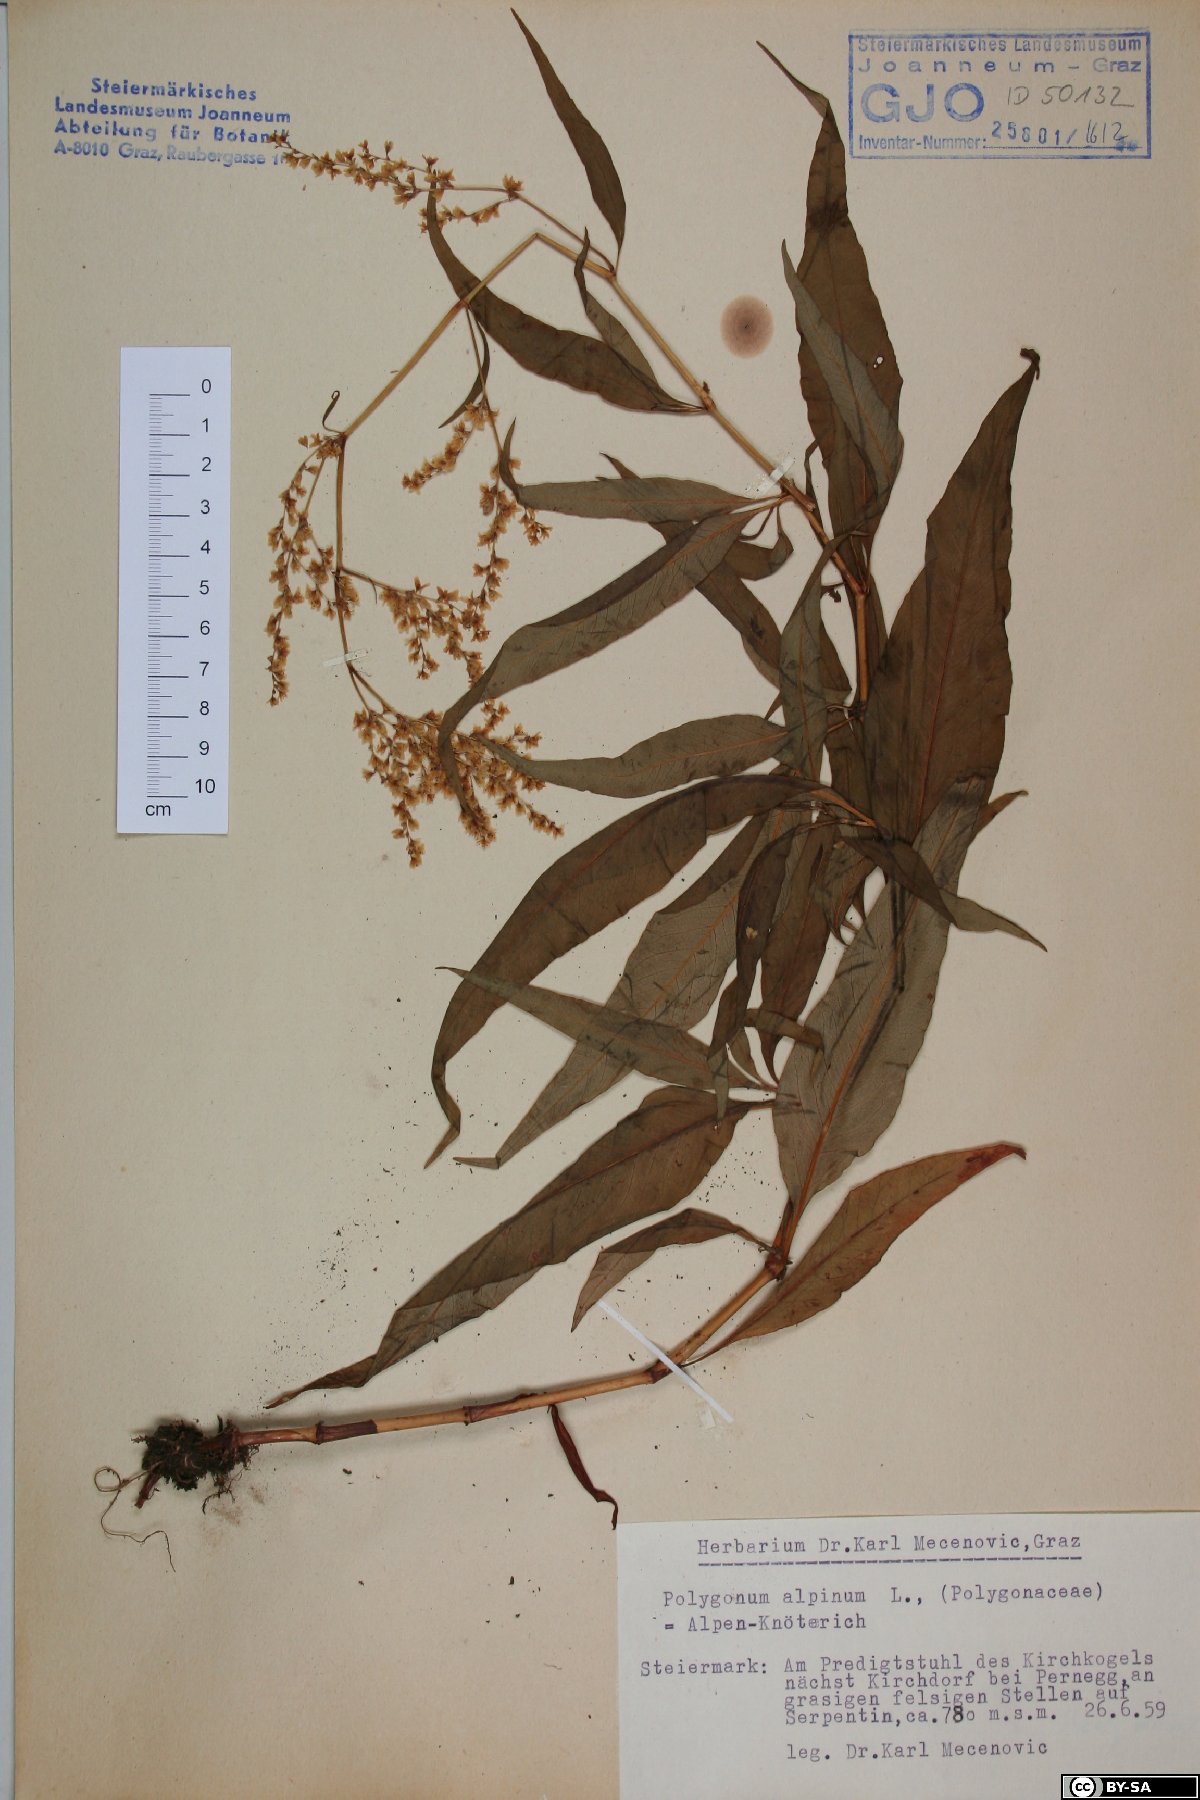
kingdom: Plantae
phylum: Tracheophyta
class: Magnoliopsida
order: Caryophyllales
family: Polygonaceae
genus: Koenigia
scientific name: Koenigia alpina
